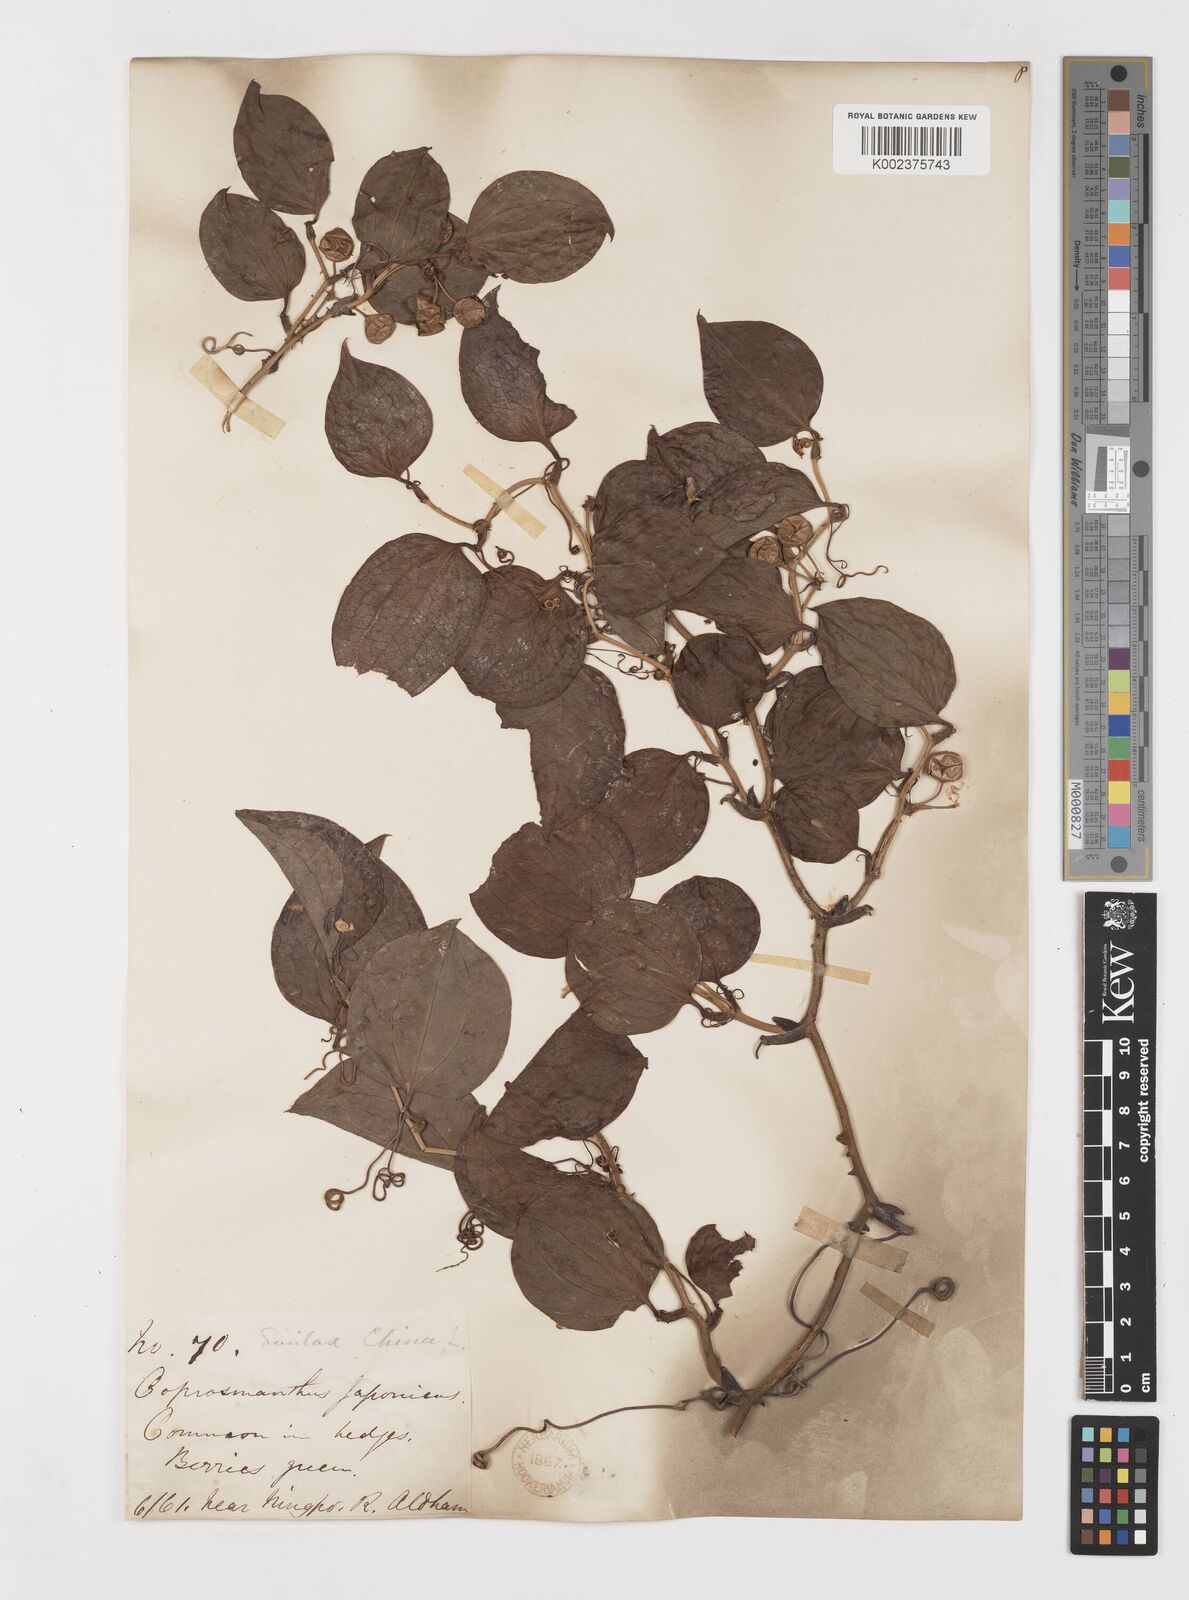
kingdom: Plantae
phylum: Tracheophyta
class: Liliopsida
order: Liliales
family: Smilacaceae
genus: Smilax
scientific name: Smilax china
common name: Chinaroot
